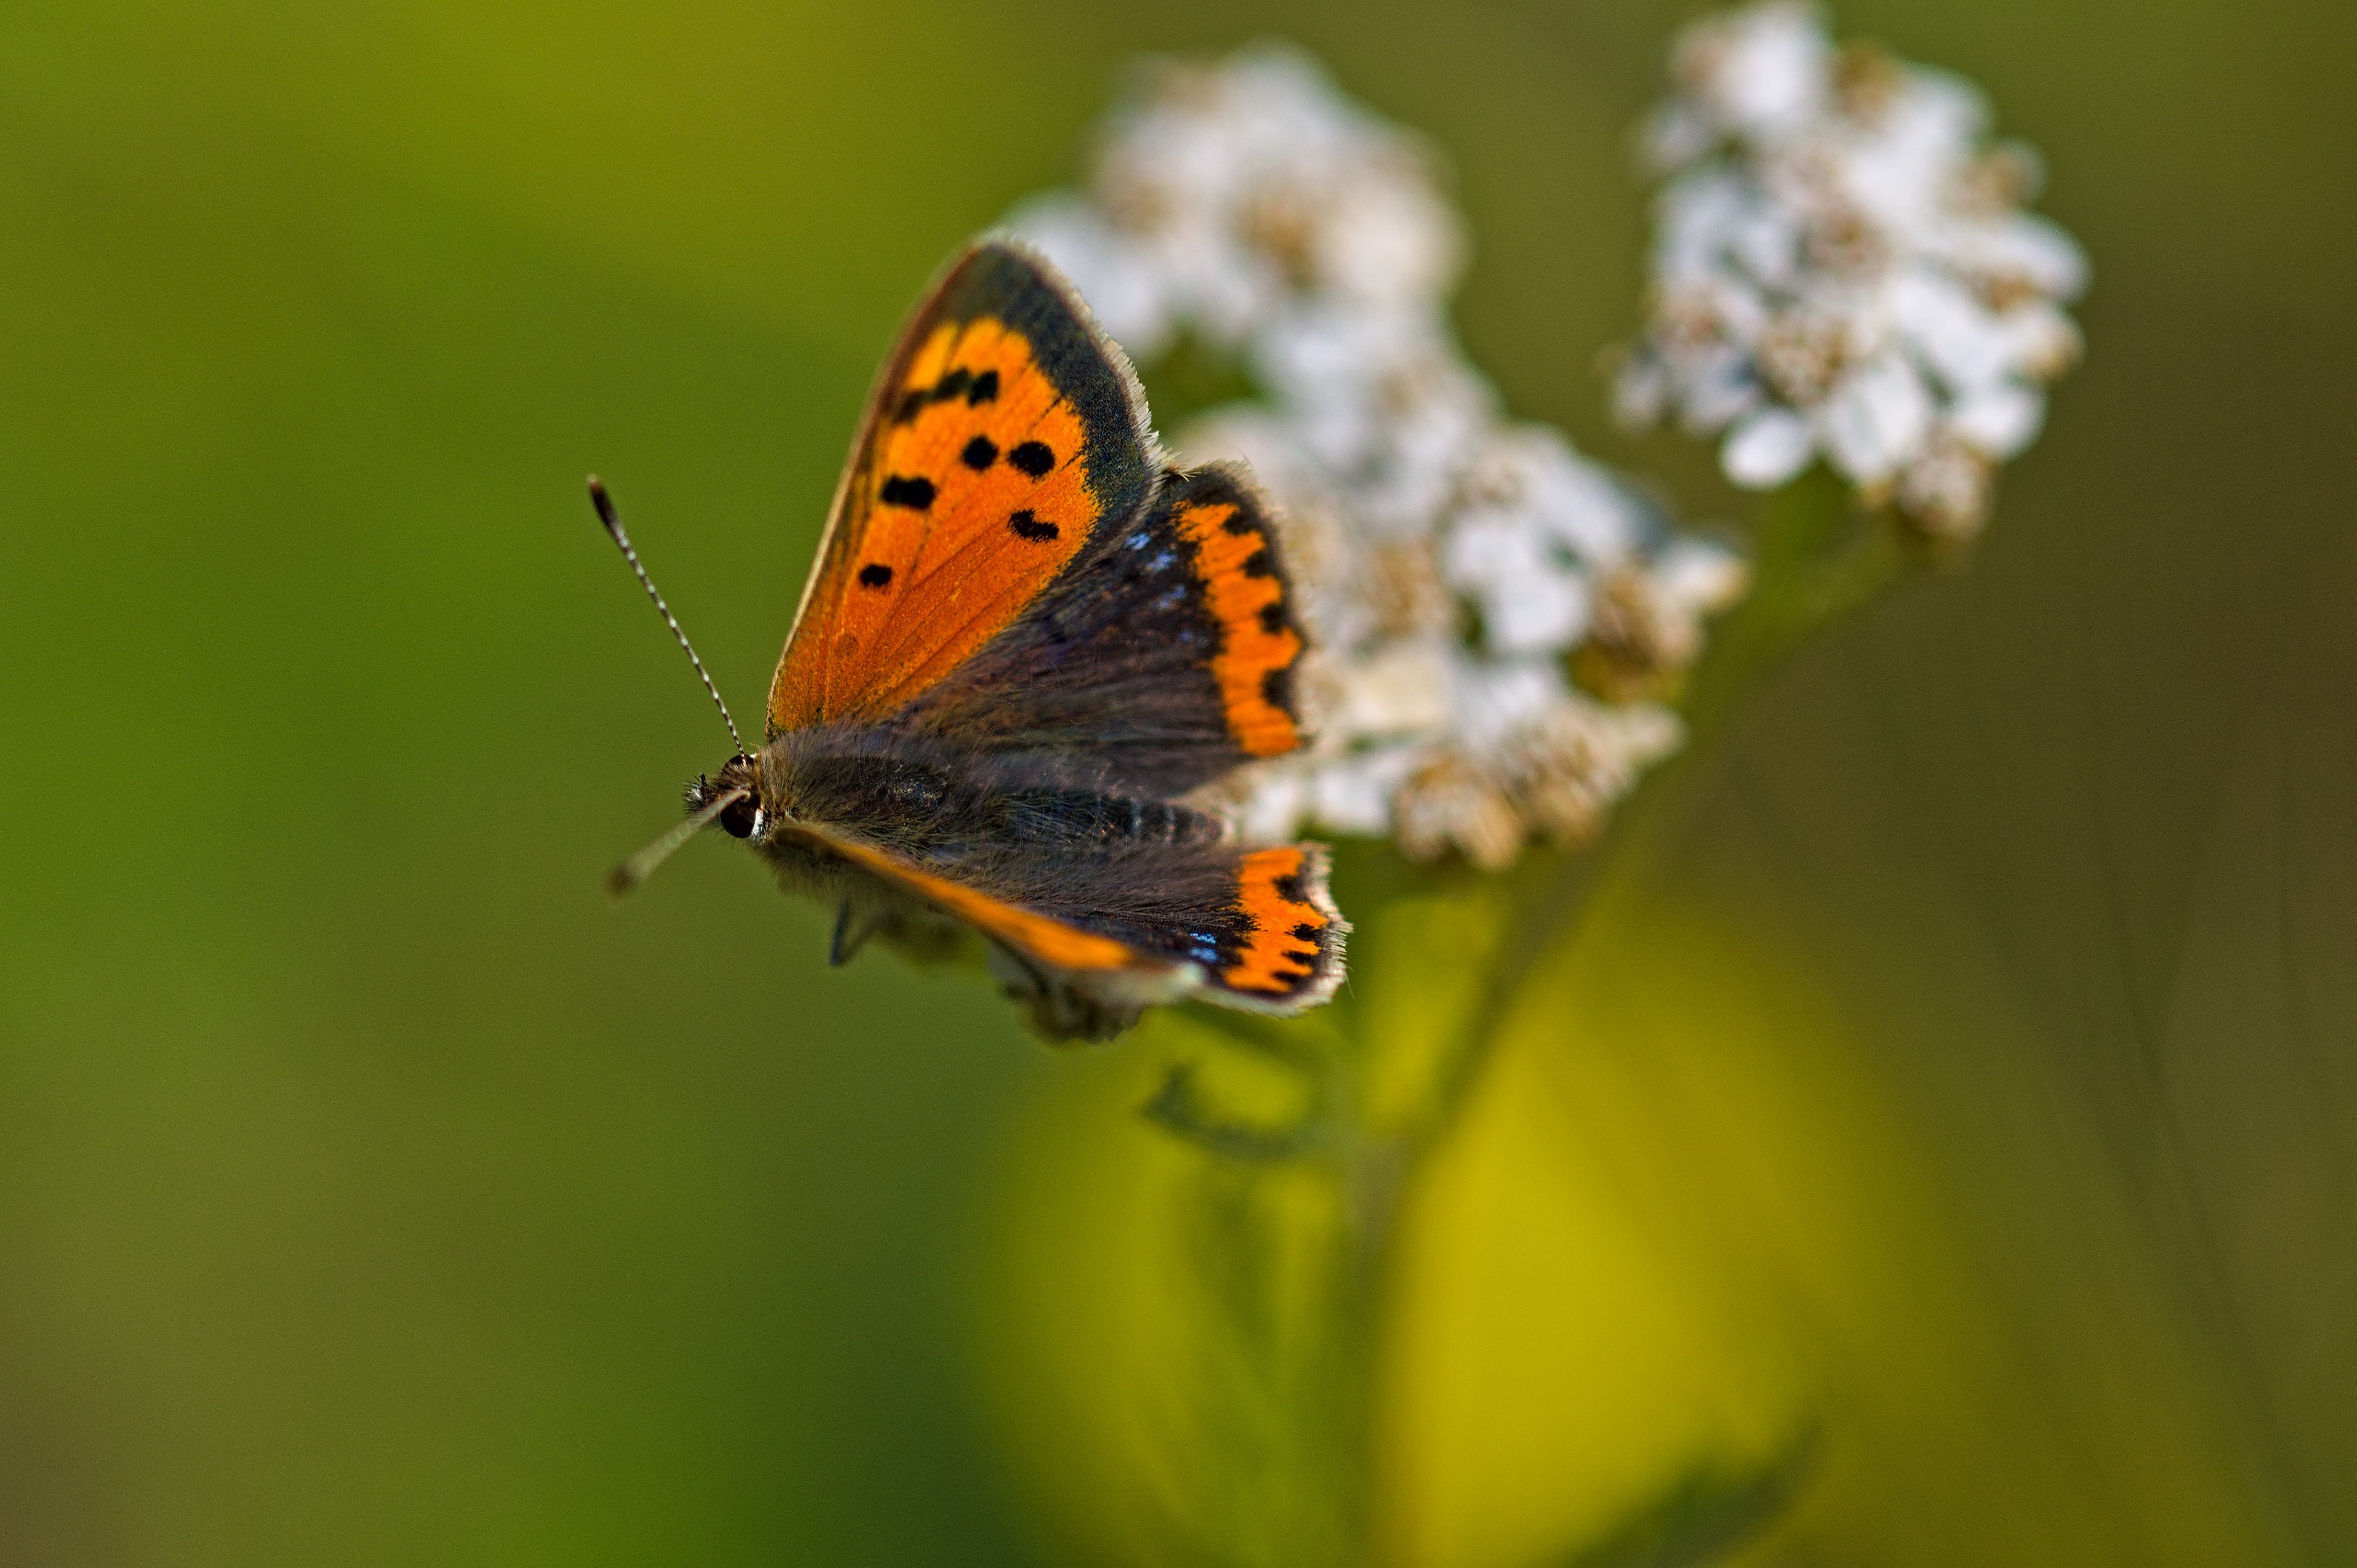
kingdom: Animalia
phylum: Arthropoda
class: Insecta
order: Lepidoptera
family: Lycaenidae
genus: Lycaena
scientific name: Lycaena phlaeas
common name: Lille ildfugl
